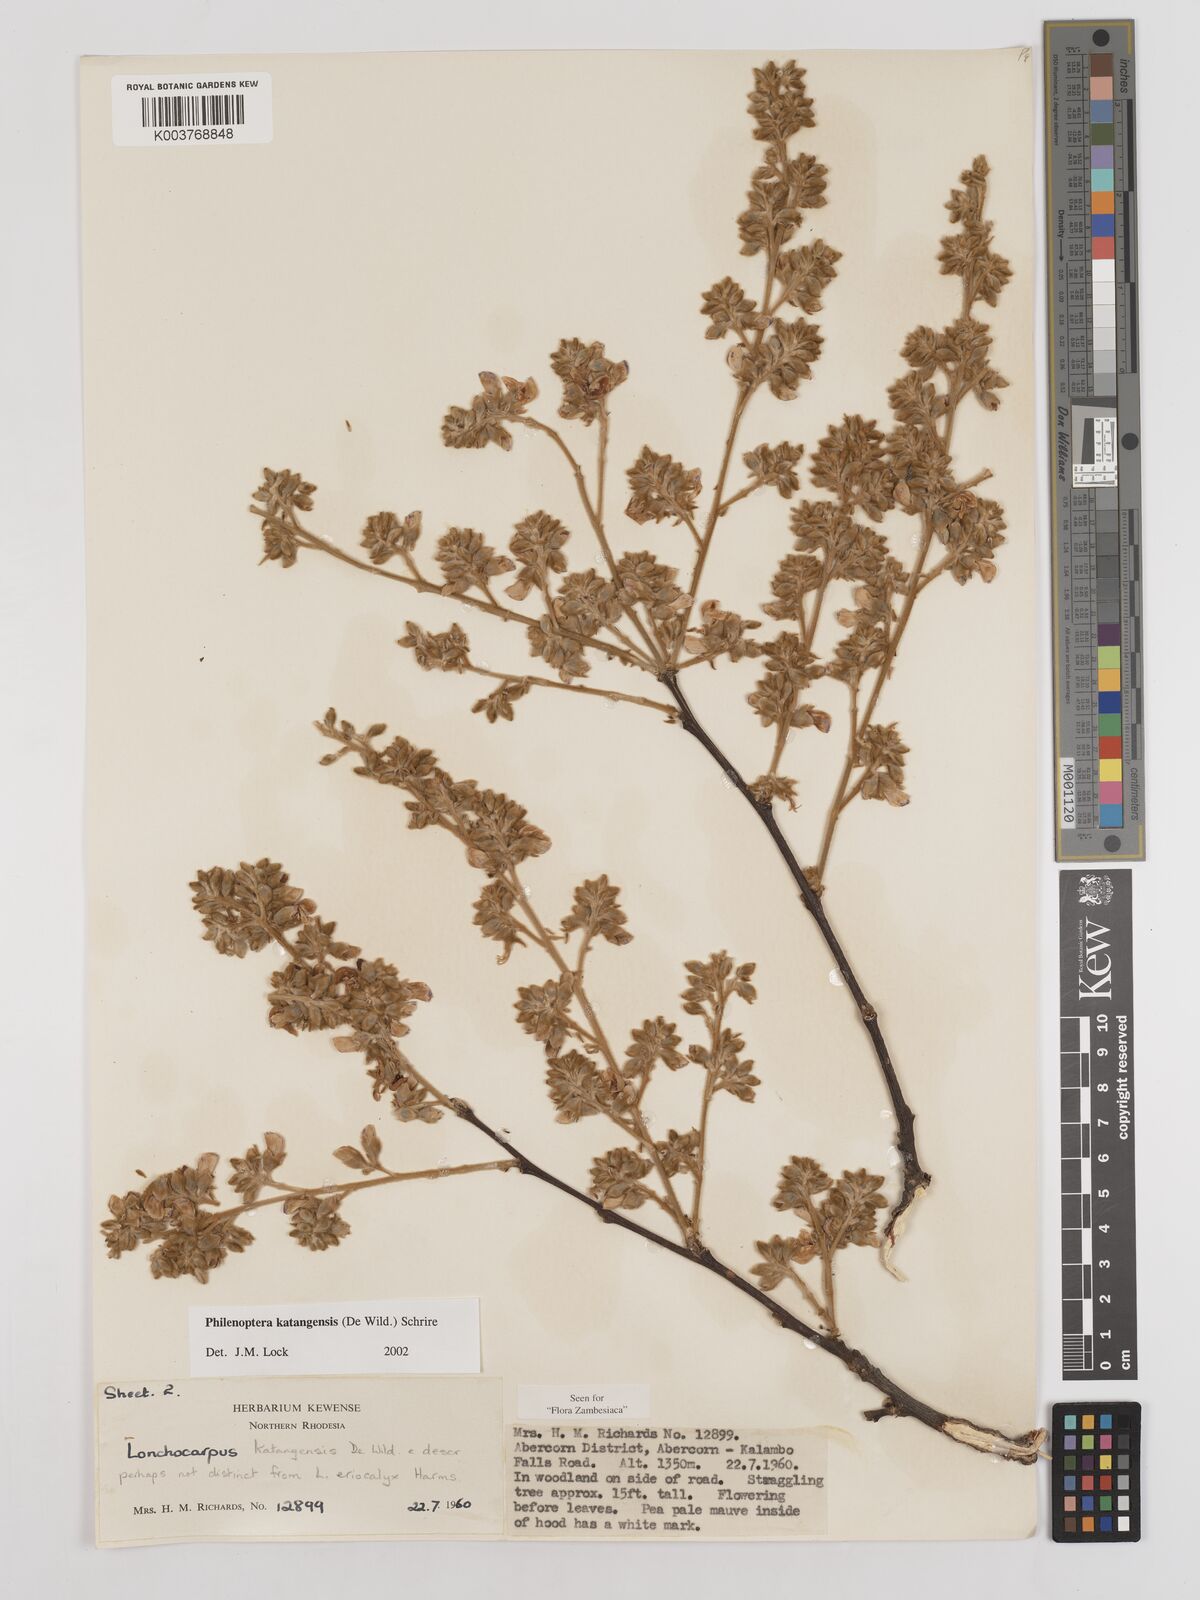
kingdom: Plantae
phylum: Tracheophyta
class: Magnoliopsida
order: Fabales
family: Fabaceae
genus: Philenoptera
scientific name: Philenoptera katangensis
